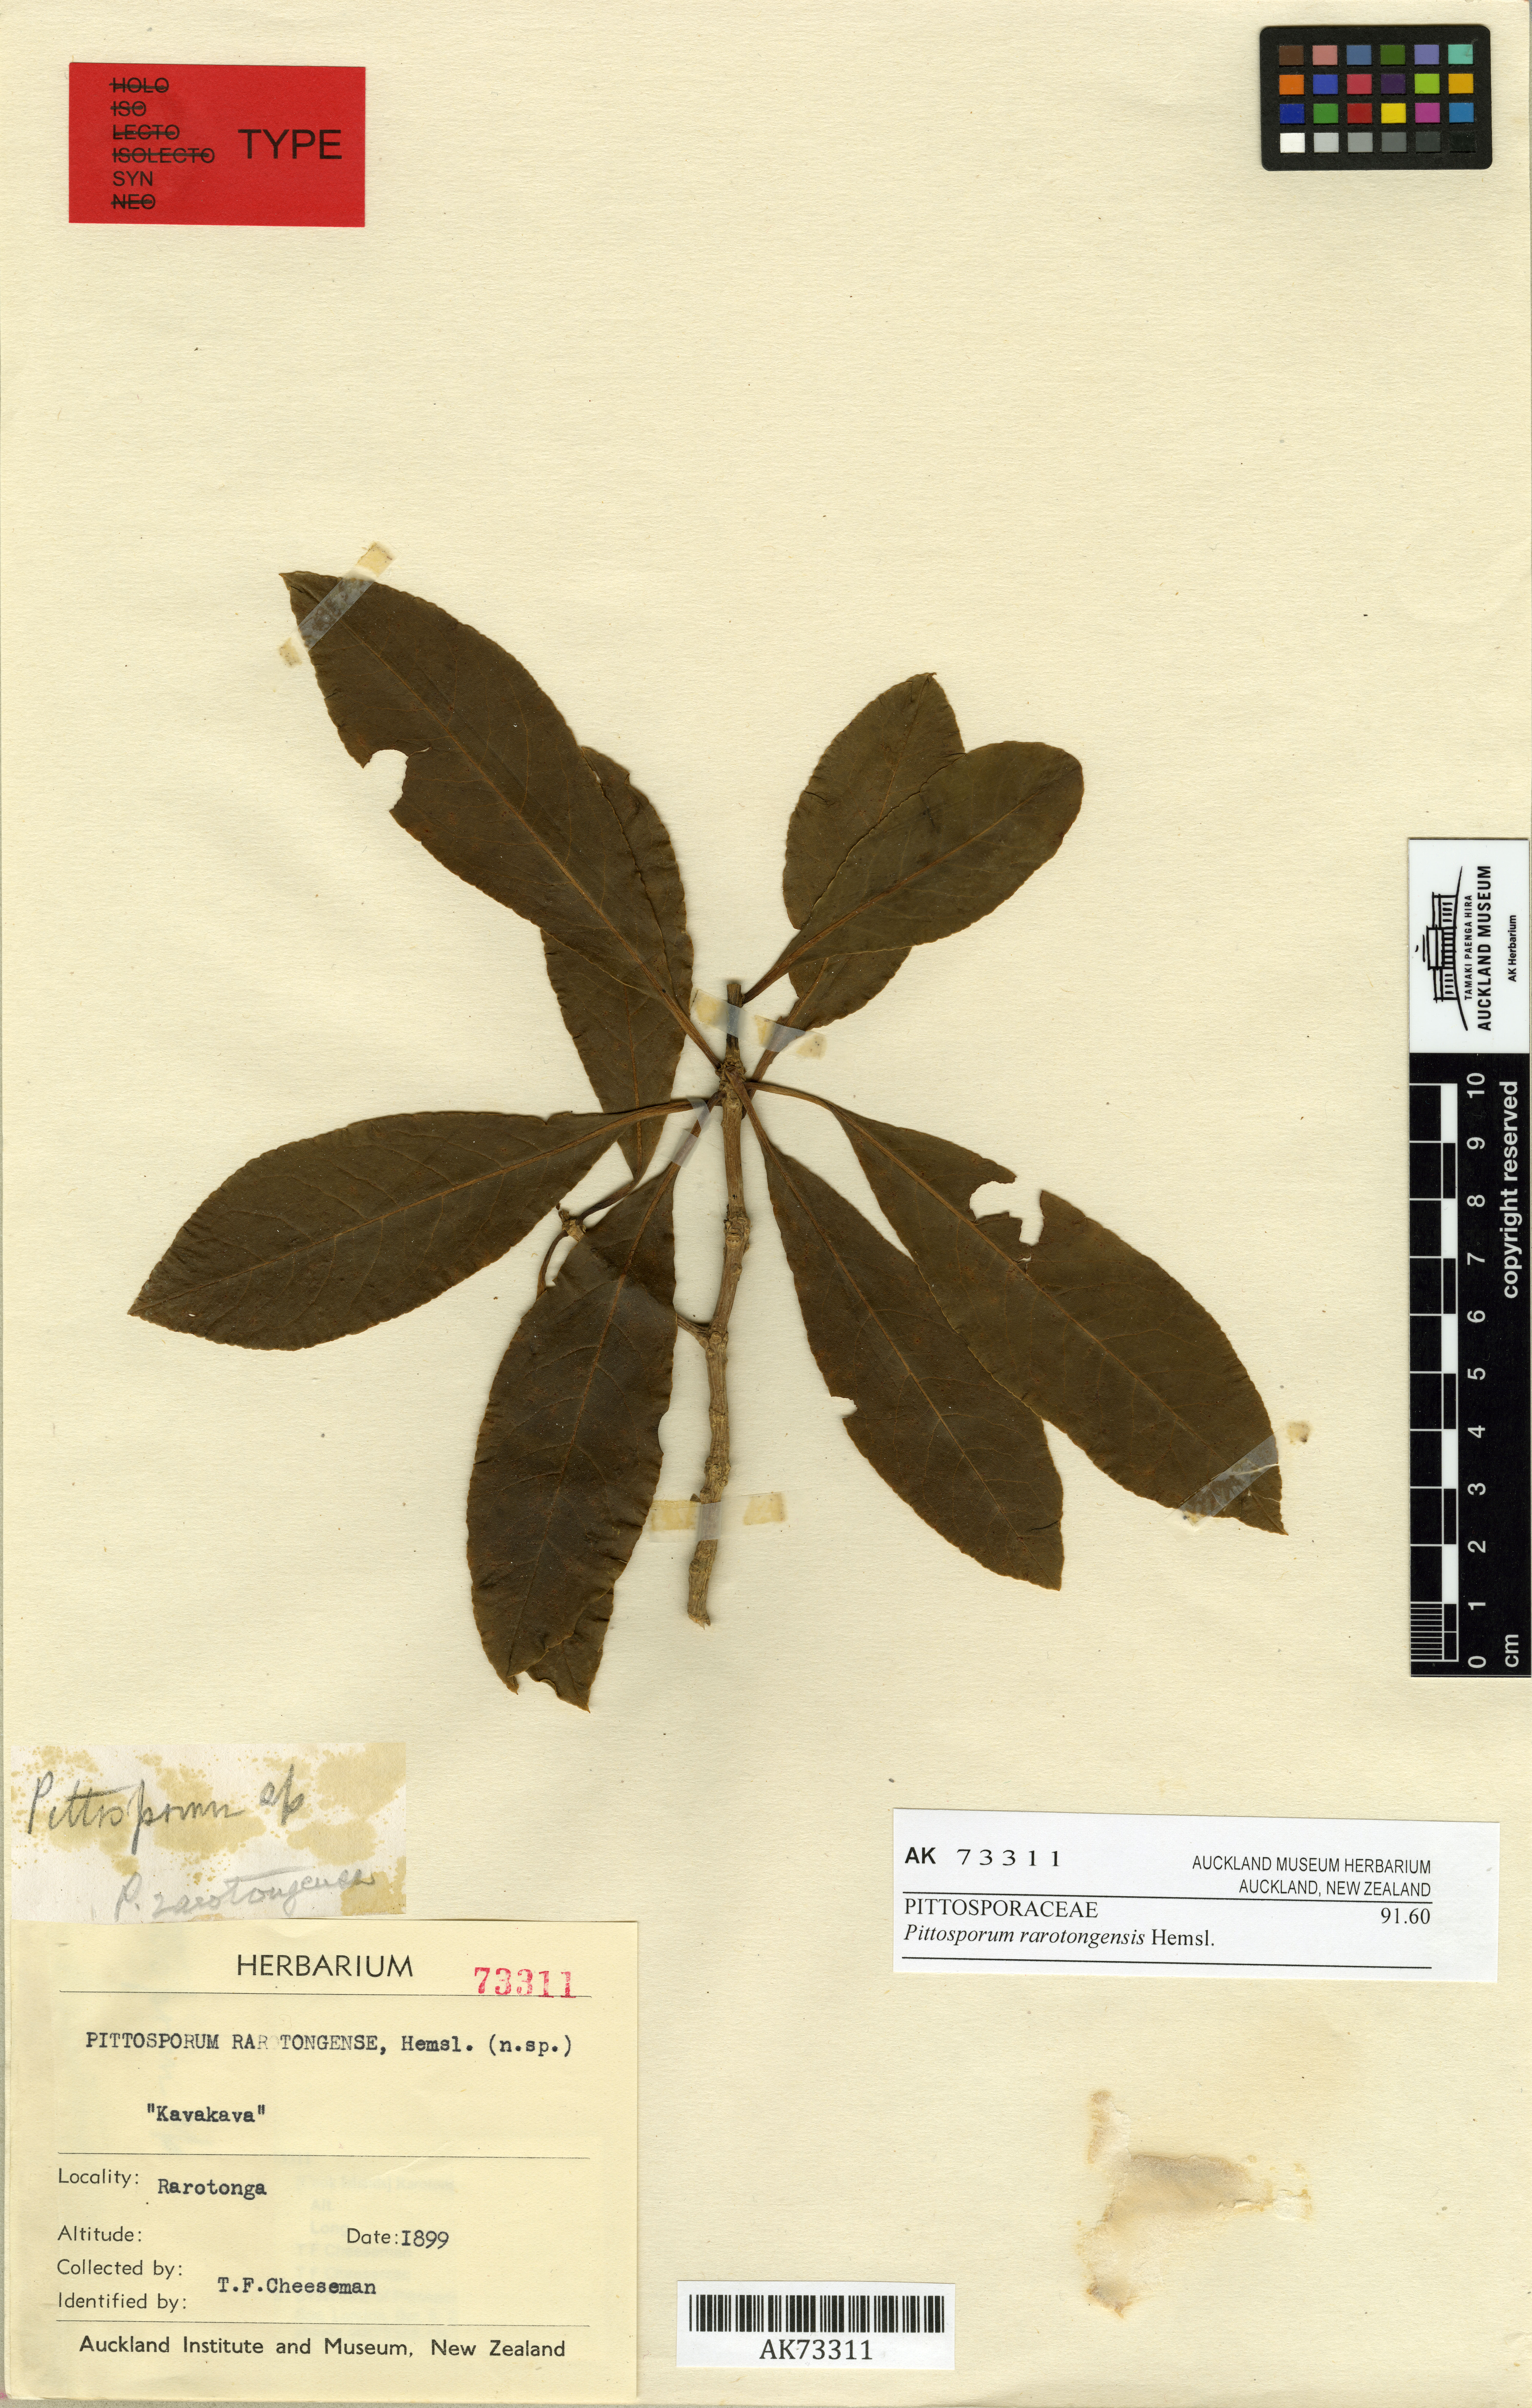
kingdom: Plantae
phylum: Tracheophyta
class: Magnoliopsida
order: Apiales
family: Pittosporaceae
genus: Pittosporum
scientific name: Pittosporum rarotongense
